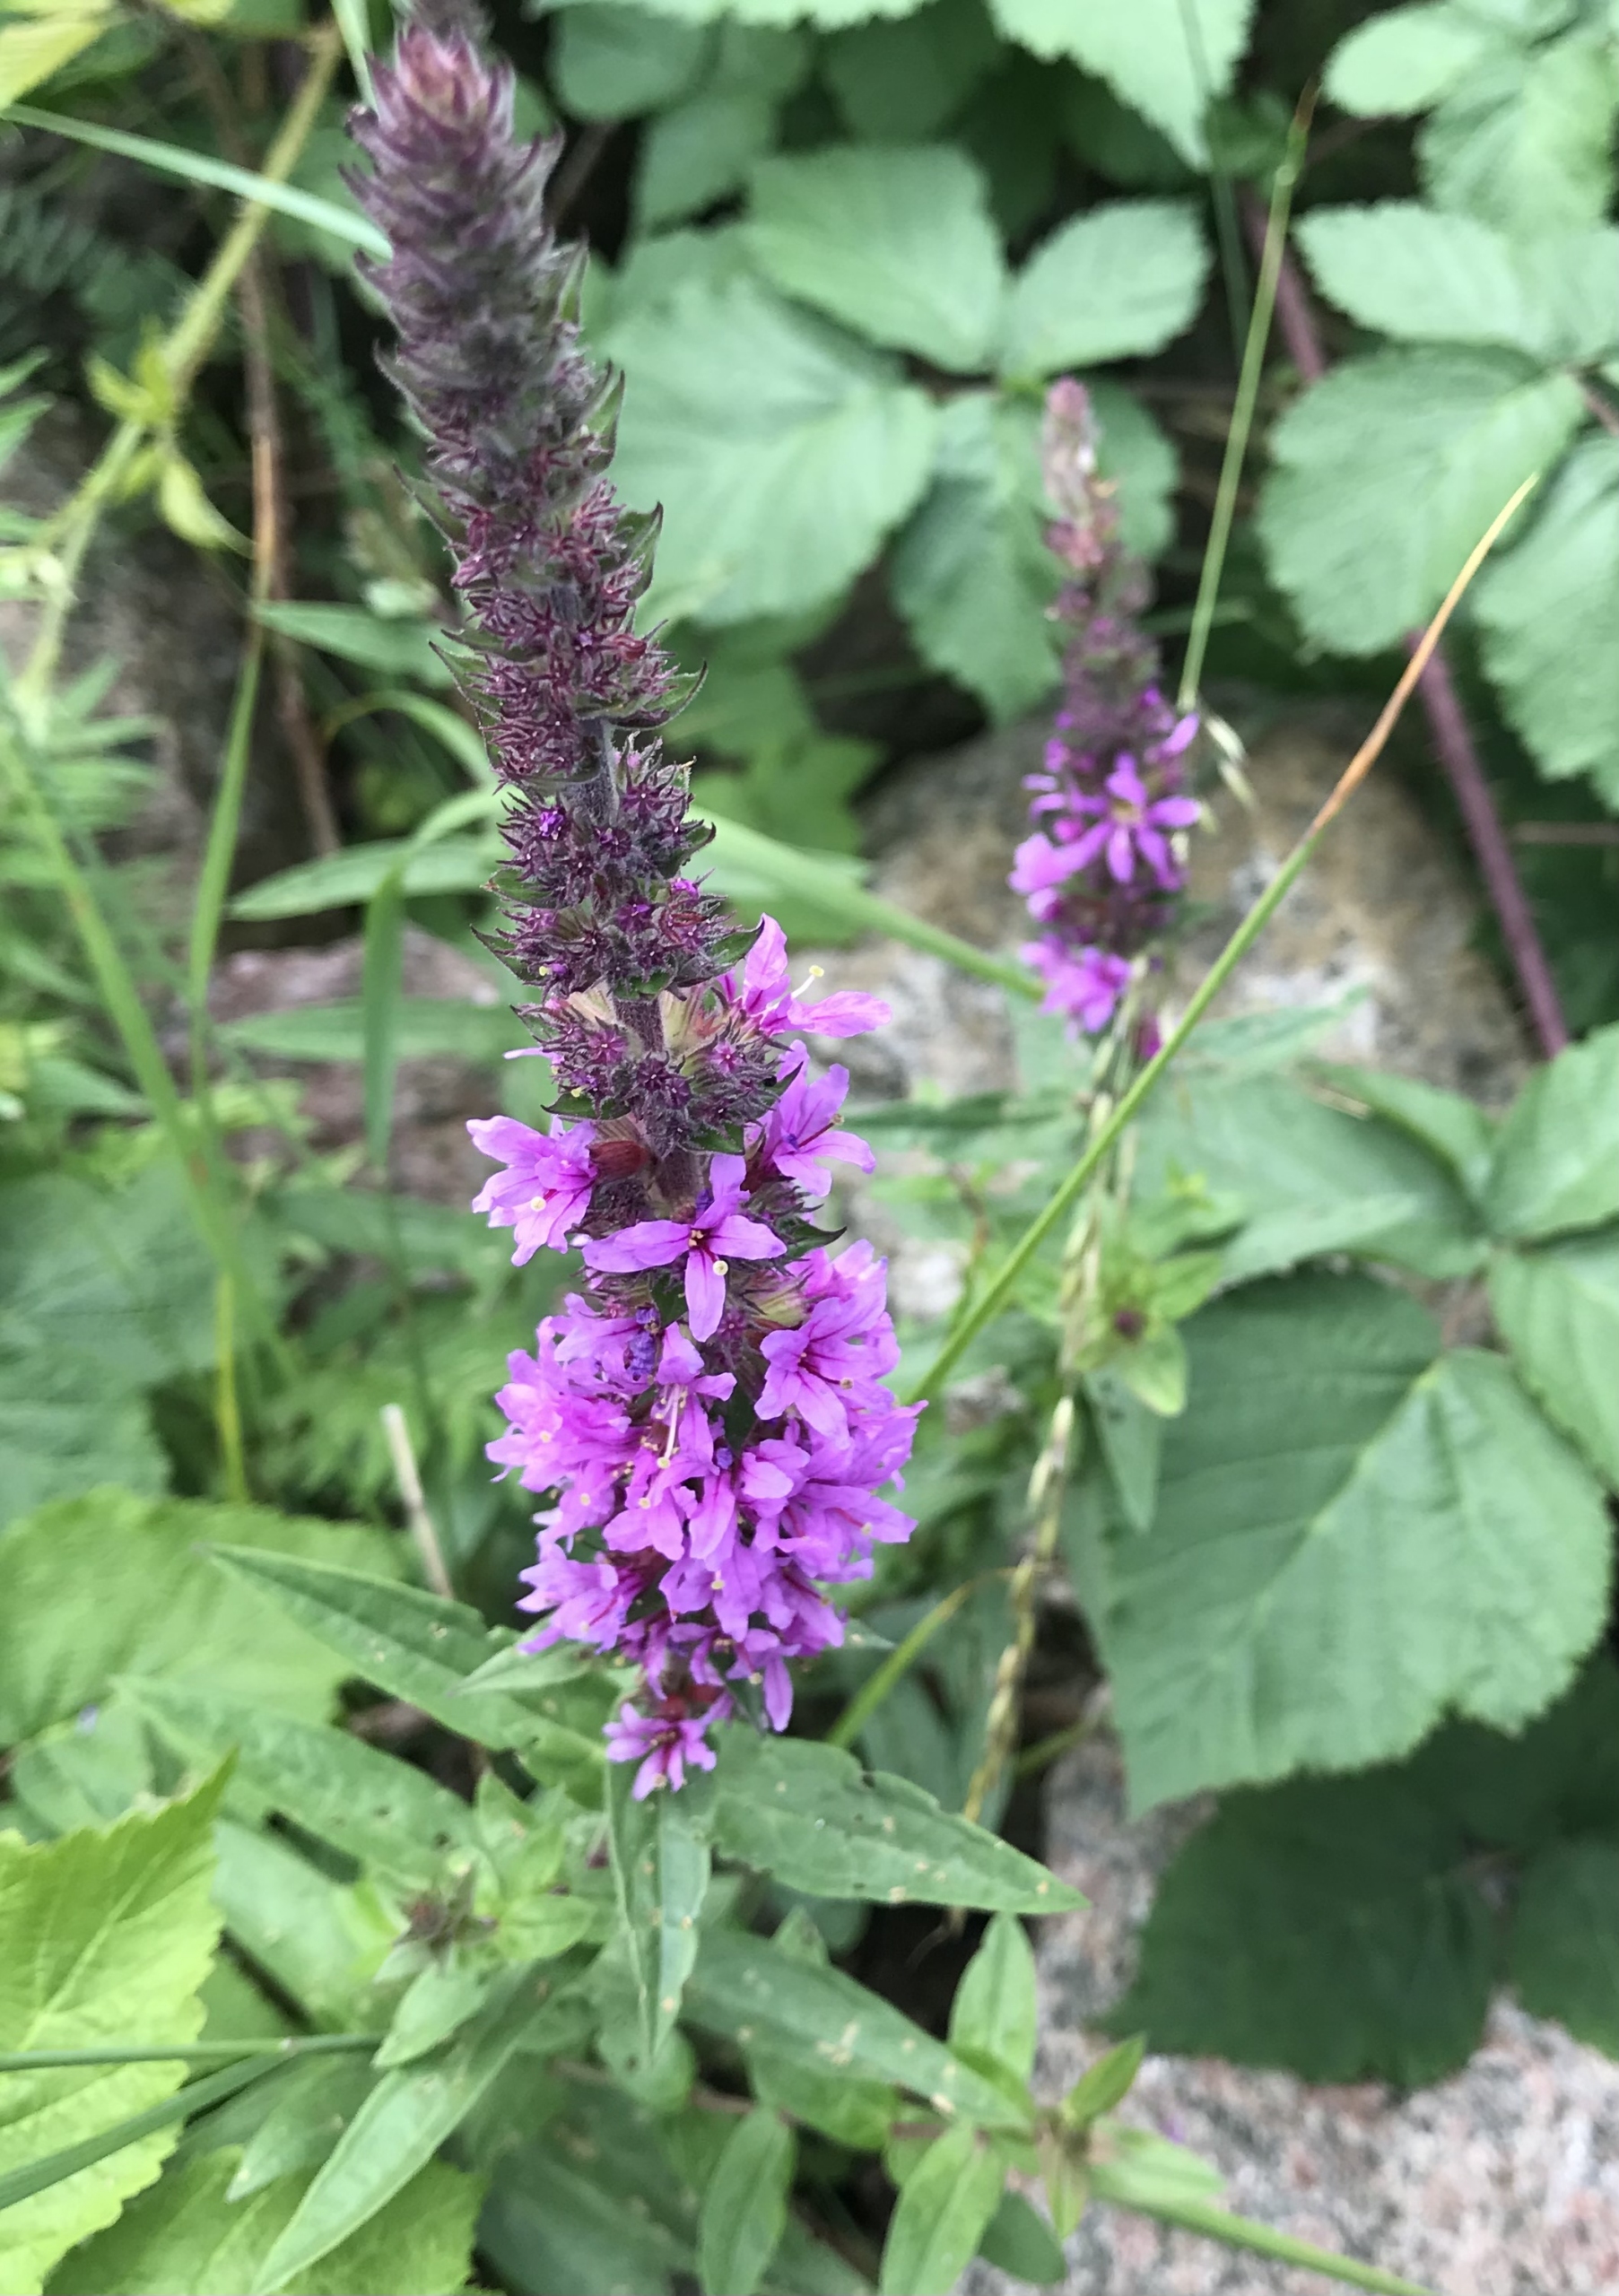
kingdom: Plantae
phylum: Tracheophyta
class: Magnoliopsida
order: Myrtales
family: Lythraceae
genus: Lythrum
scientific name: Lythrum salicaria
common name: Kattehale
